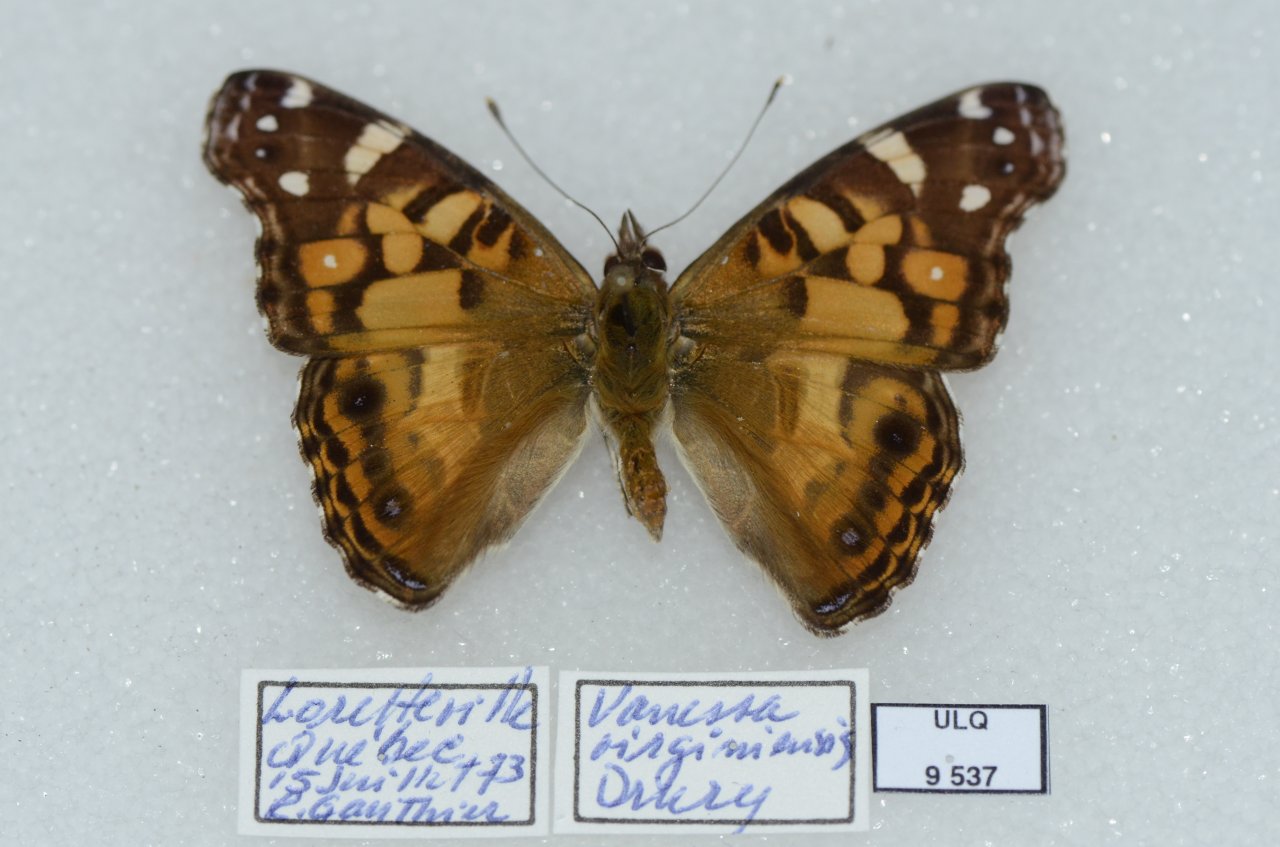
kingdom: Animalia
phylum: Arthropoda
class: Insecta
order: Lepidoptera
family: Nymphalidae
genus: Vanessa
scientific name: Vanessa virginiensis
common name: American Lady
